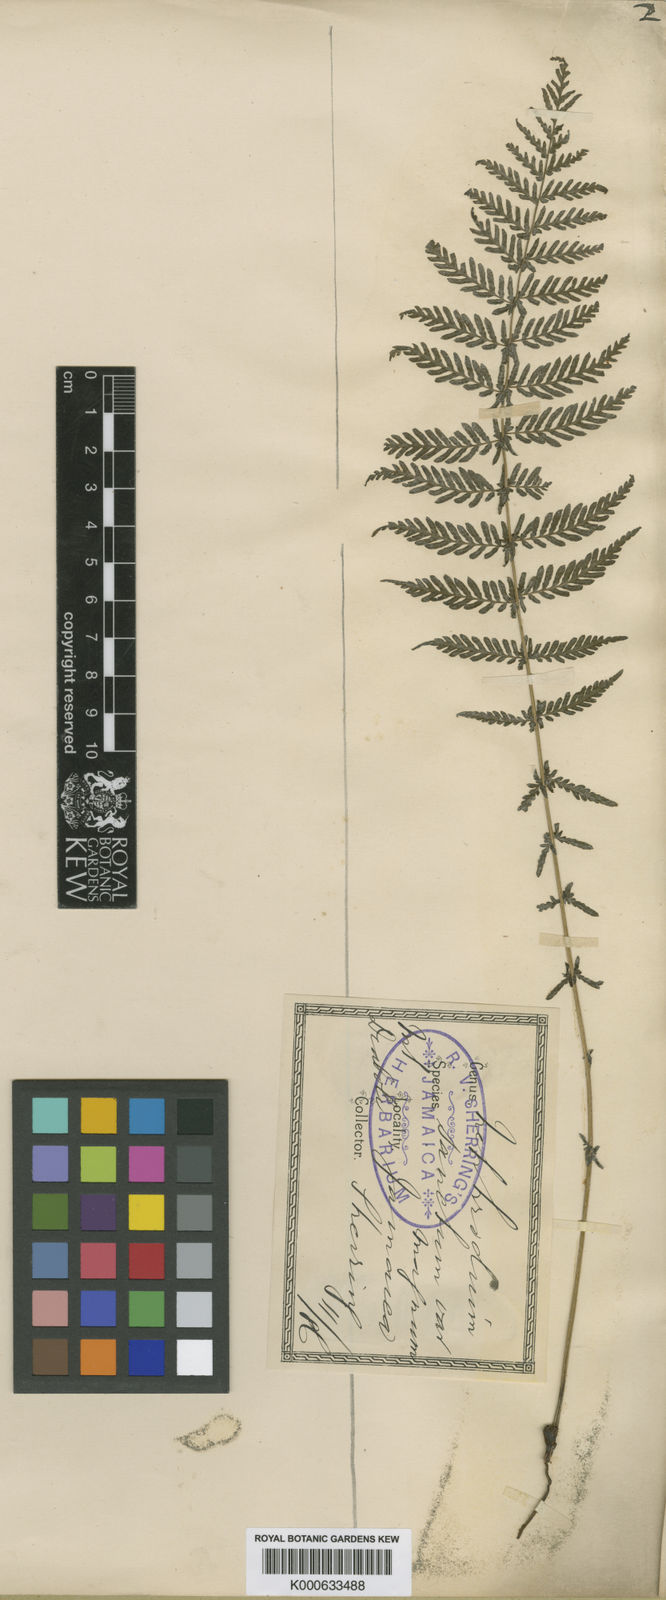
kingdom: Plantae
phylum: Tracheophyta
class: Polypodiopsida
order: Polypodiales
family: Thelypteridaceae
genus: Amauropelta
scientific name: Amauropelta cruciata
